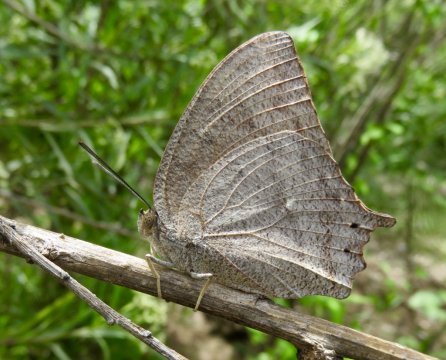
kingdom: Animalia
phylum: Arthropoda
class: Insecta
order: Lepidoptera
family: Nymphalidae
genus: Anaea
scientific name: Anaea aidea
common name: Tropical Leafwing
